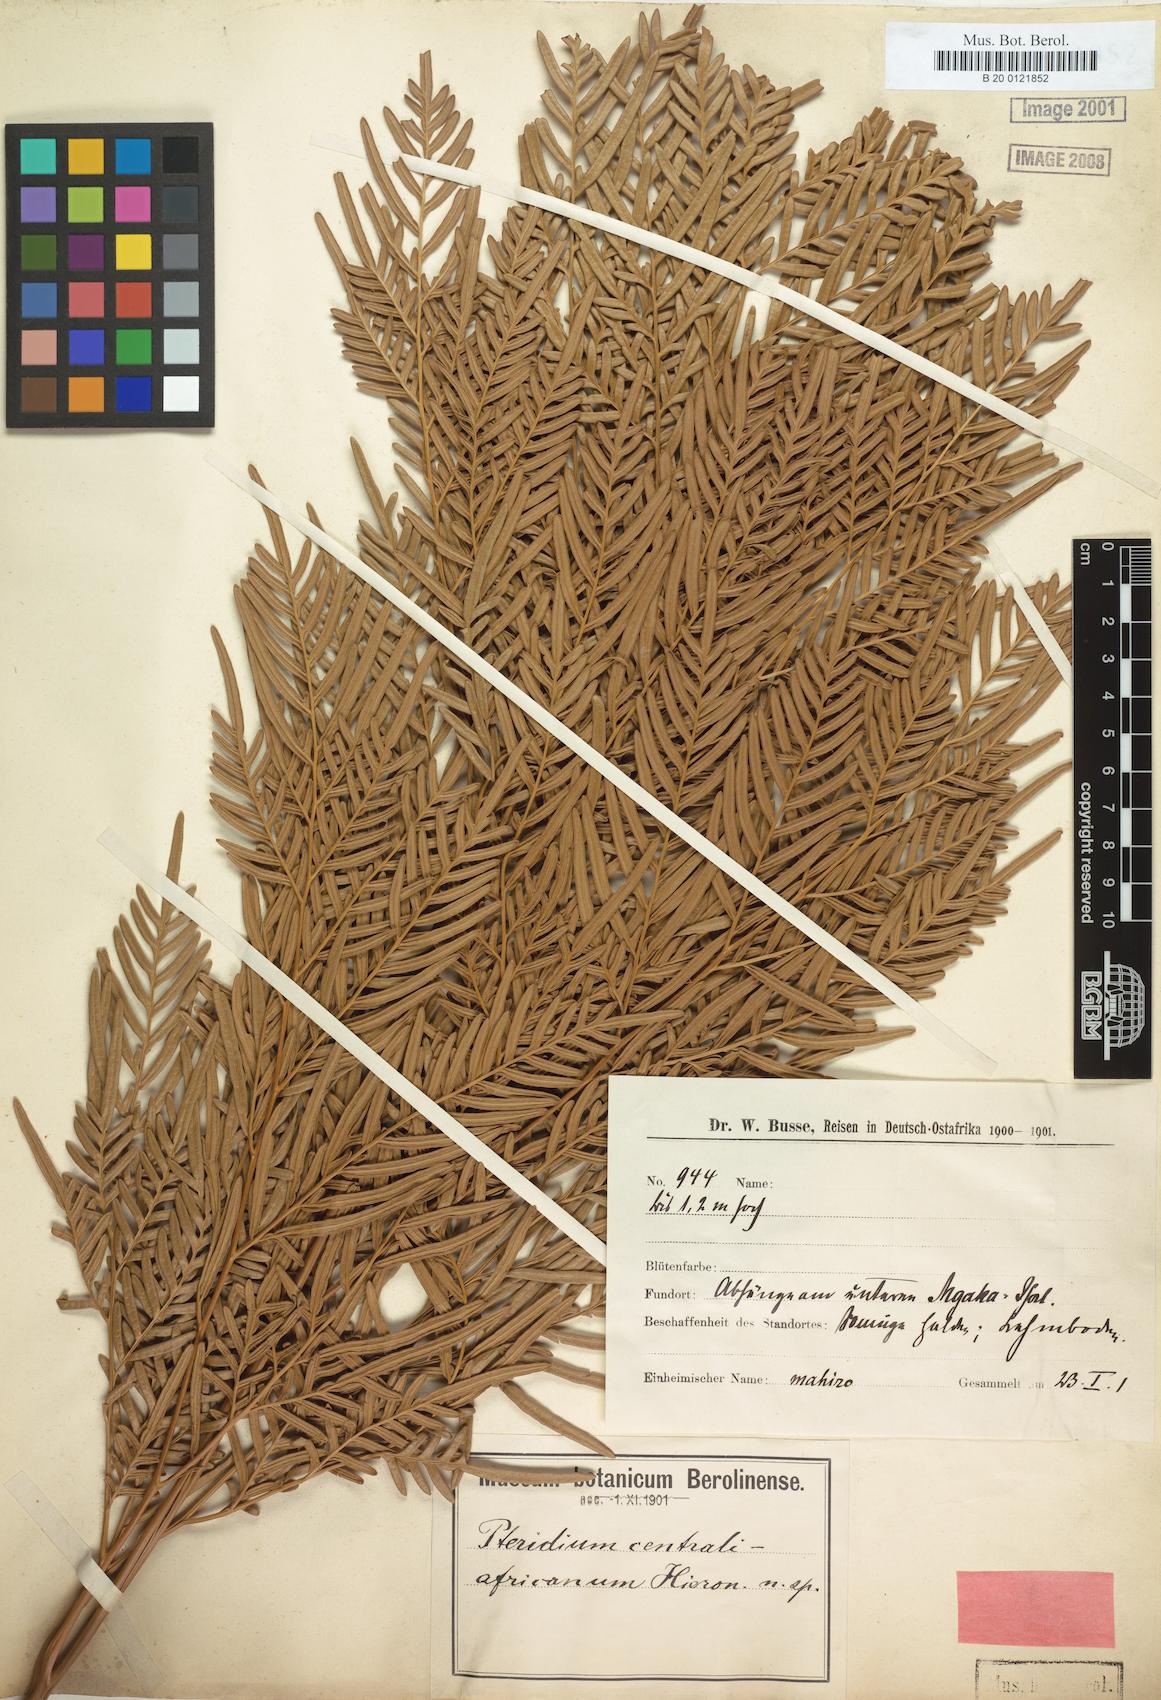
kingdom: Plantae
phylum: Tracheophyta
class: Polypodiopsida
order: Polypodiales
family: Dennstaedtiaceae
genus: Pteridium
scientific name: Pteridium aquilinum
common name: Bracken
